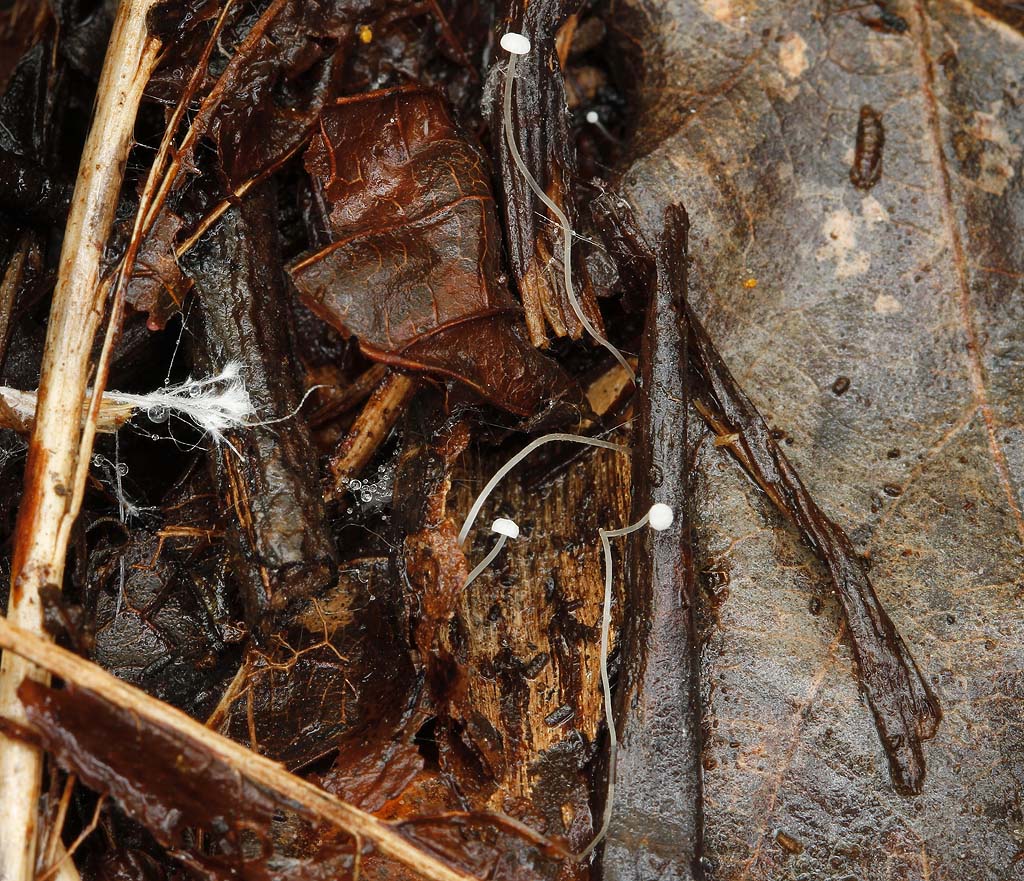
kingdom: Fungi
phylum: Basidiomycota
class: Agaricomycetes
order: Agaricales
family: Mycenaceae
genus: Mycena
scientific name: Mycena polyadelpha
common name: egeblads-huesvamp
